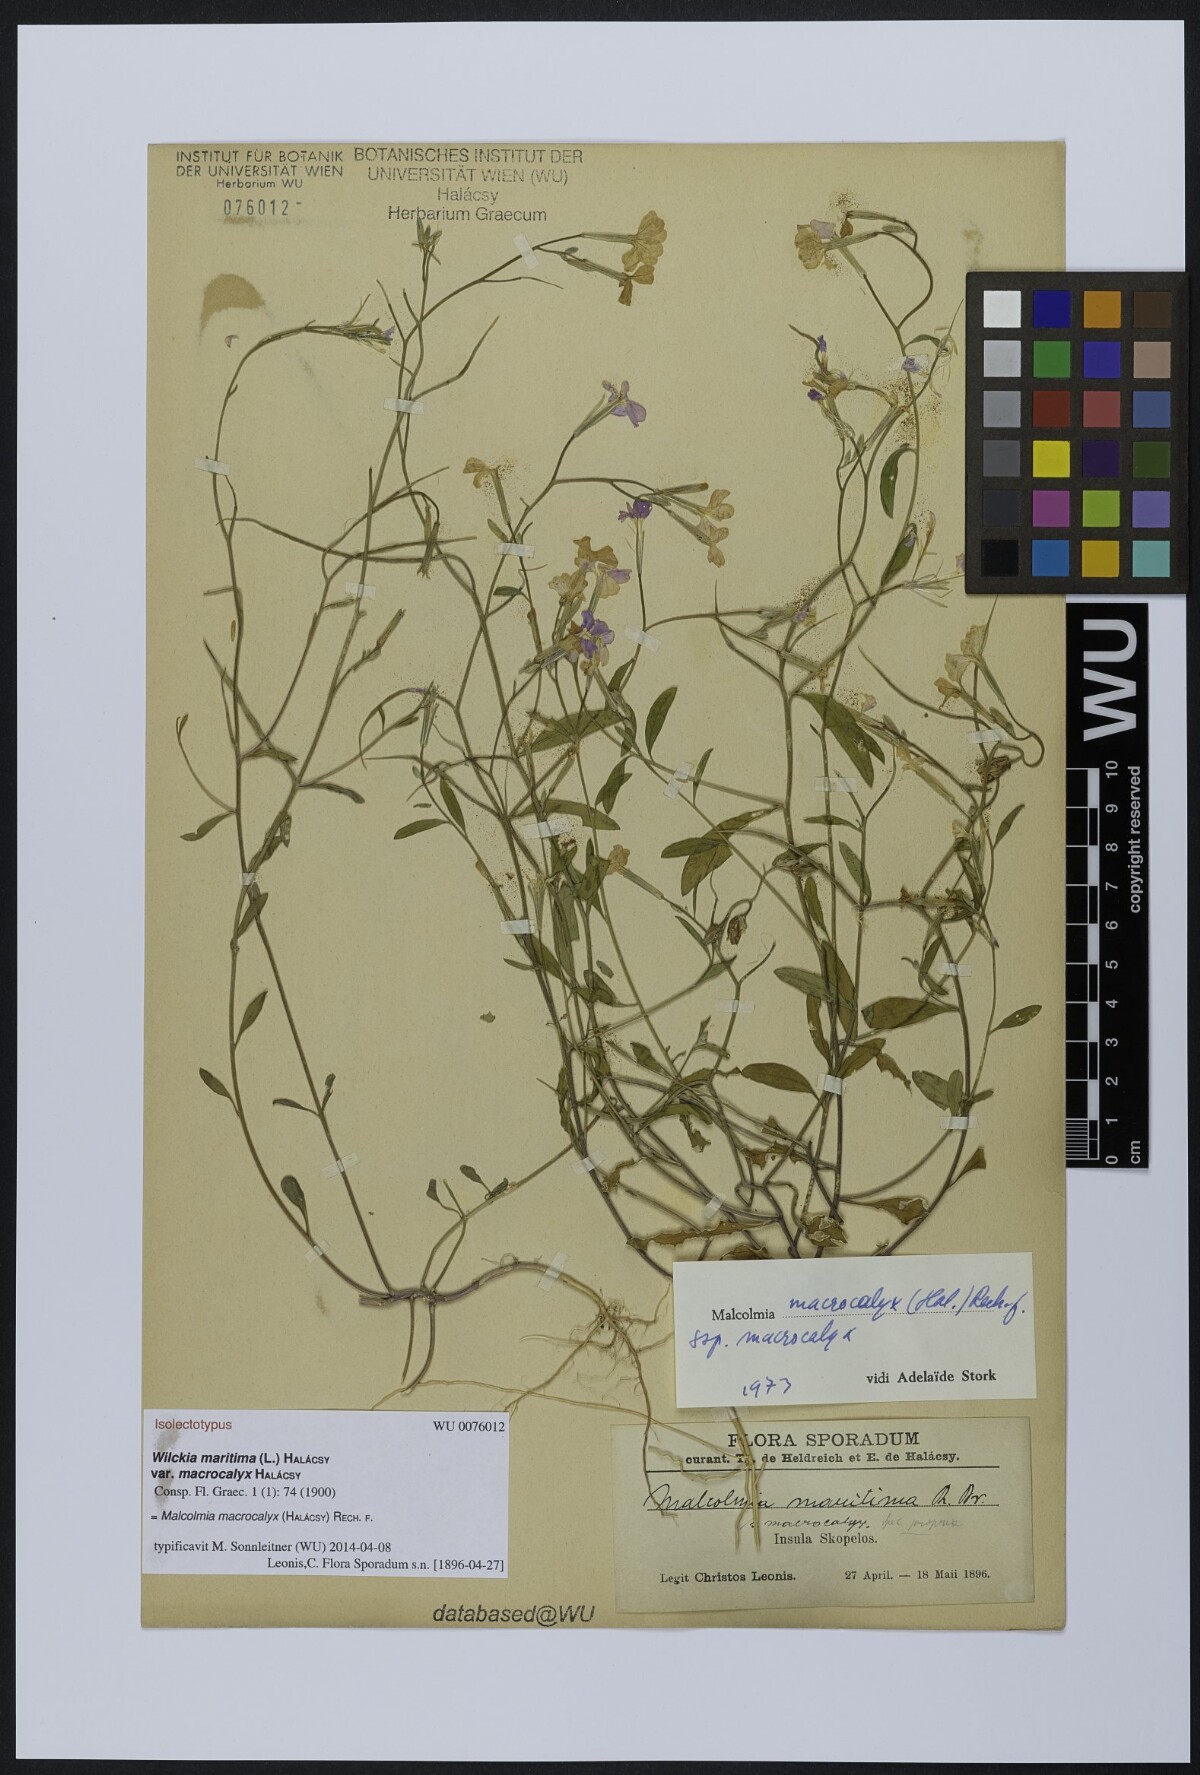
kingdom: Plantae
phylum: Tracheophyta
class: Magnoliopsida
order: Brassicales
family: Brassicaceae
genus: Malcolmia
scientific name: Malcolmia macrocalyx
